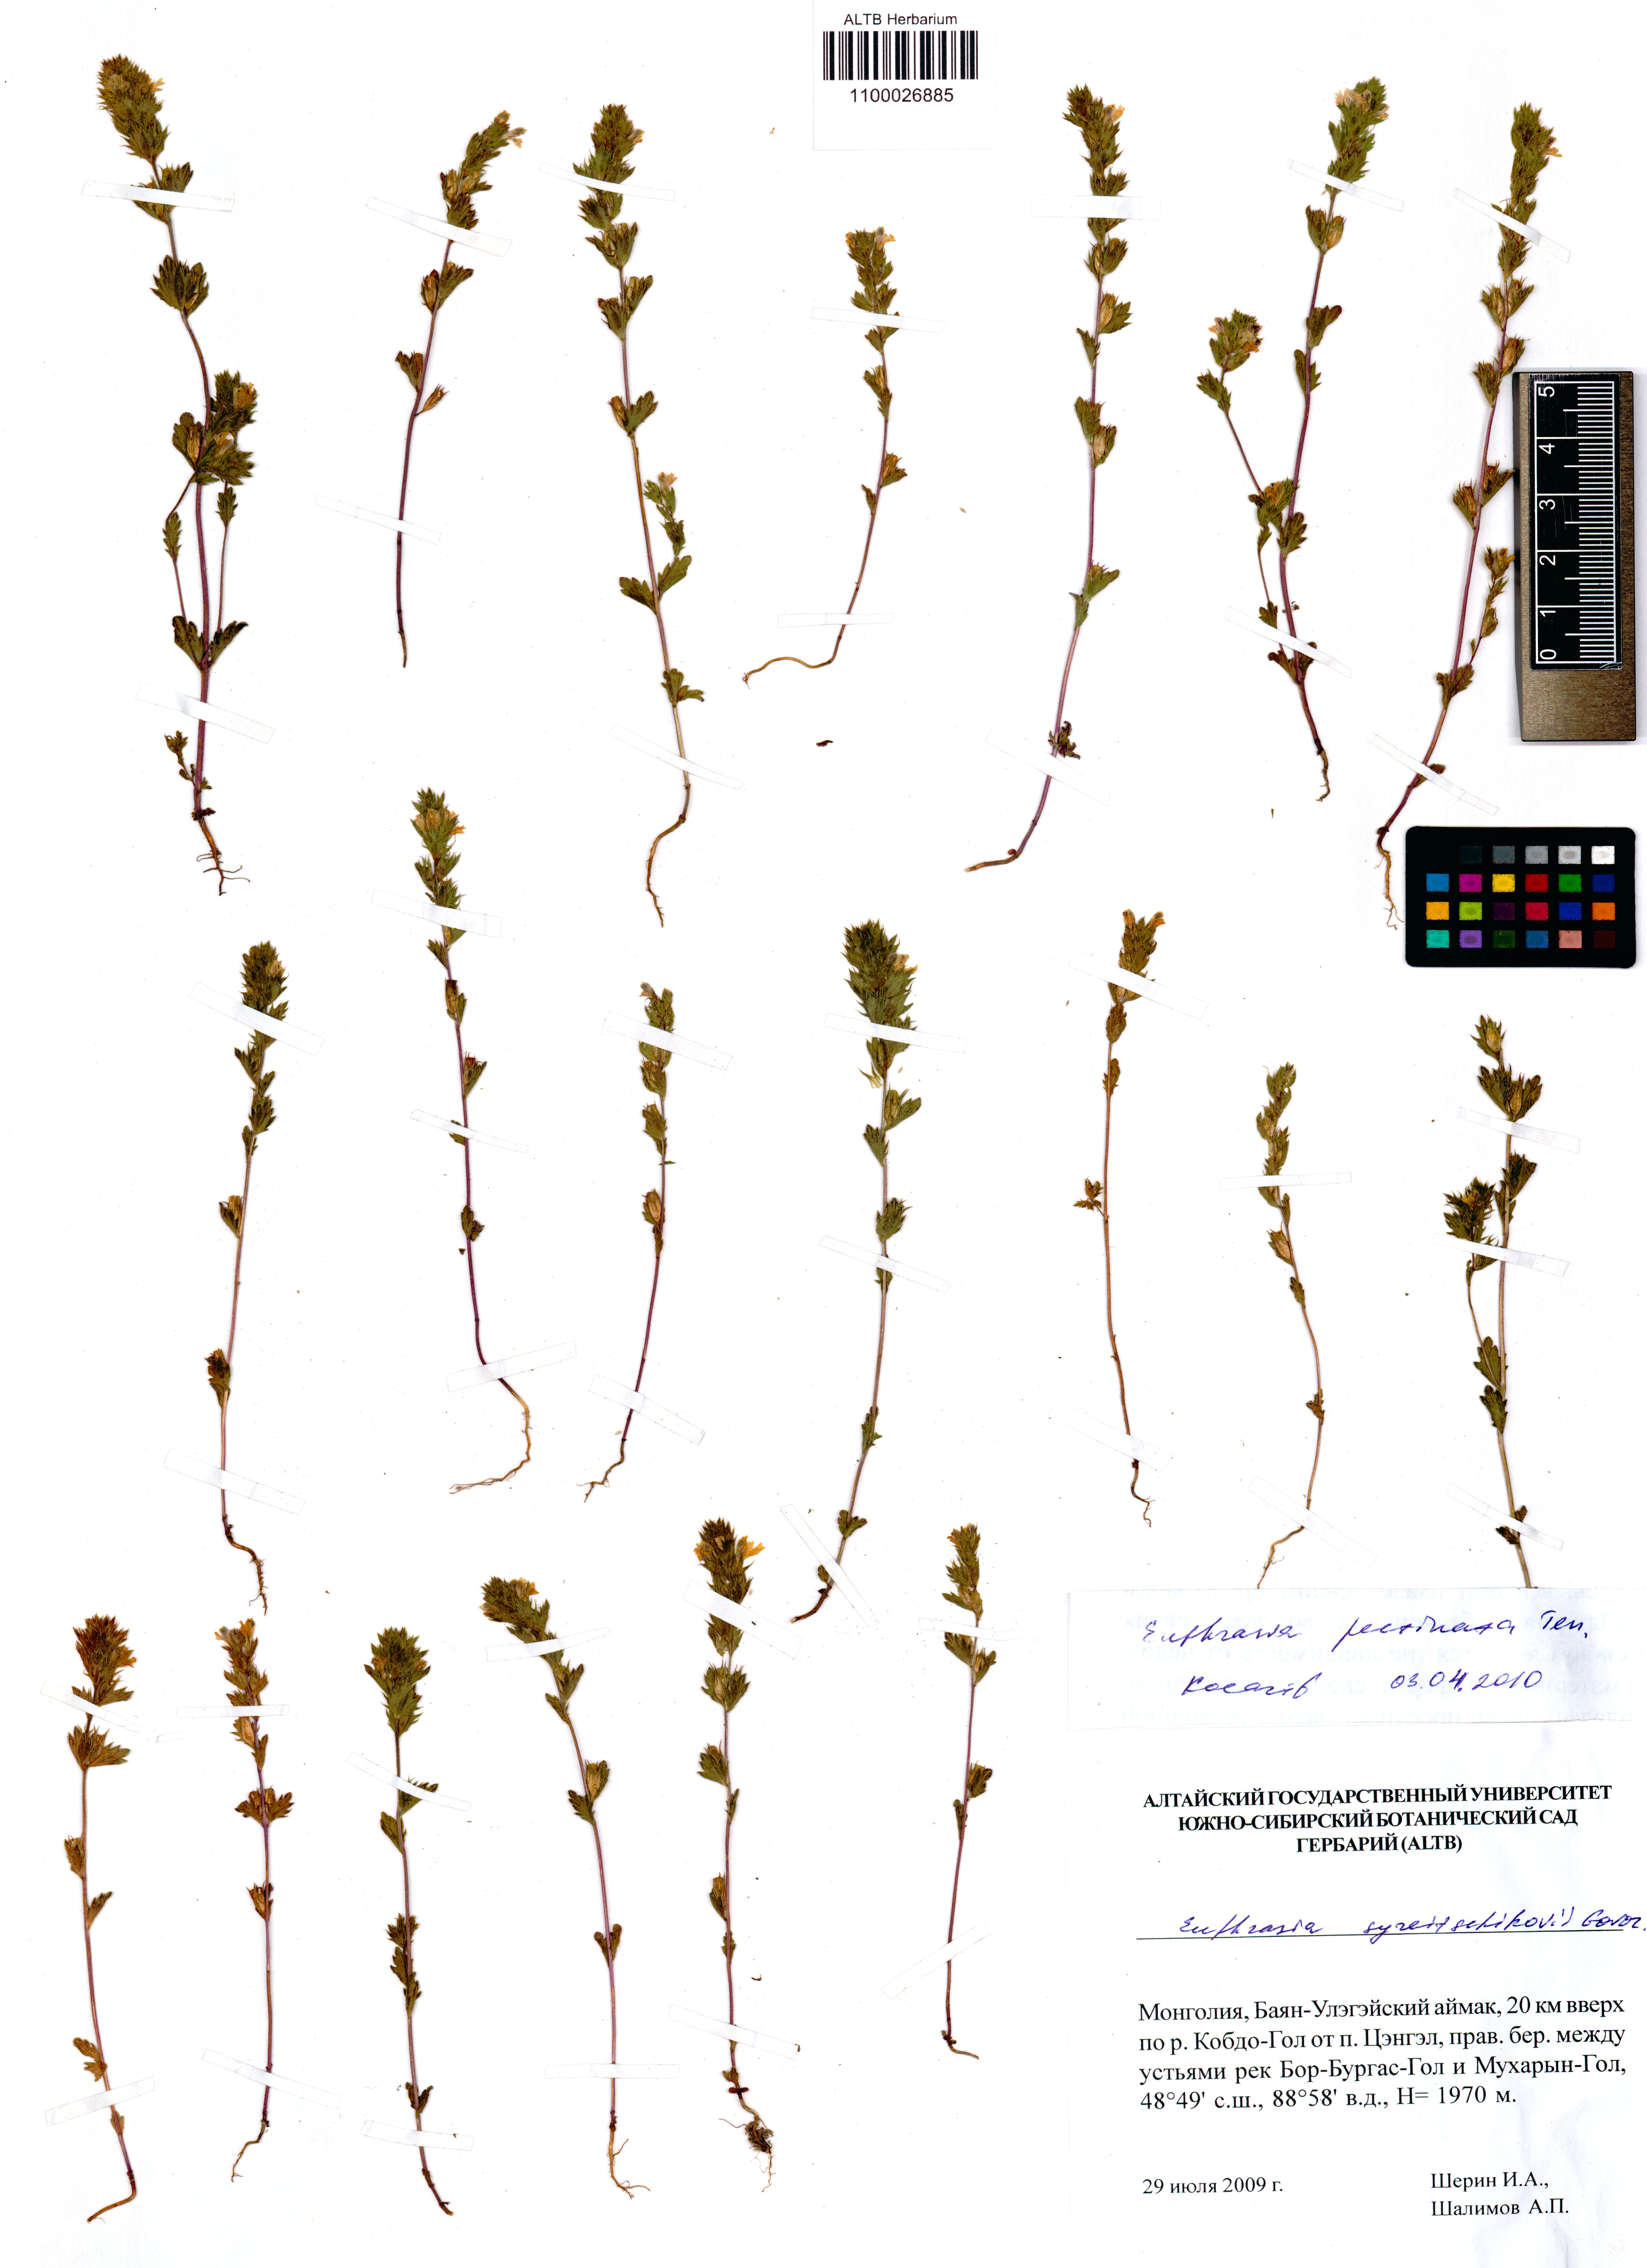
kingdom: Plantae
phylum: Tracheophyta
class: Magnoliopsida
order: Lamiales
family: Orobanchaceae
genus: Euphrasia
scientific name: Euphrasia pectinata
